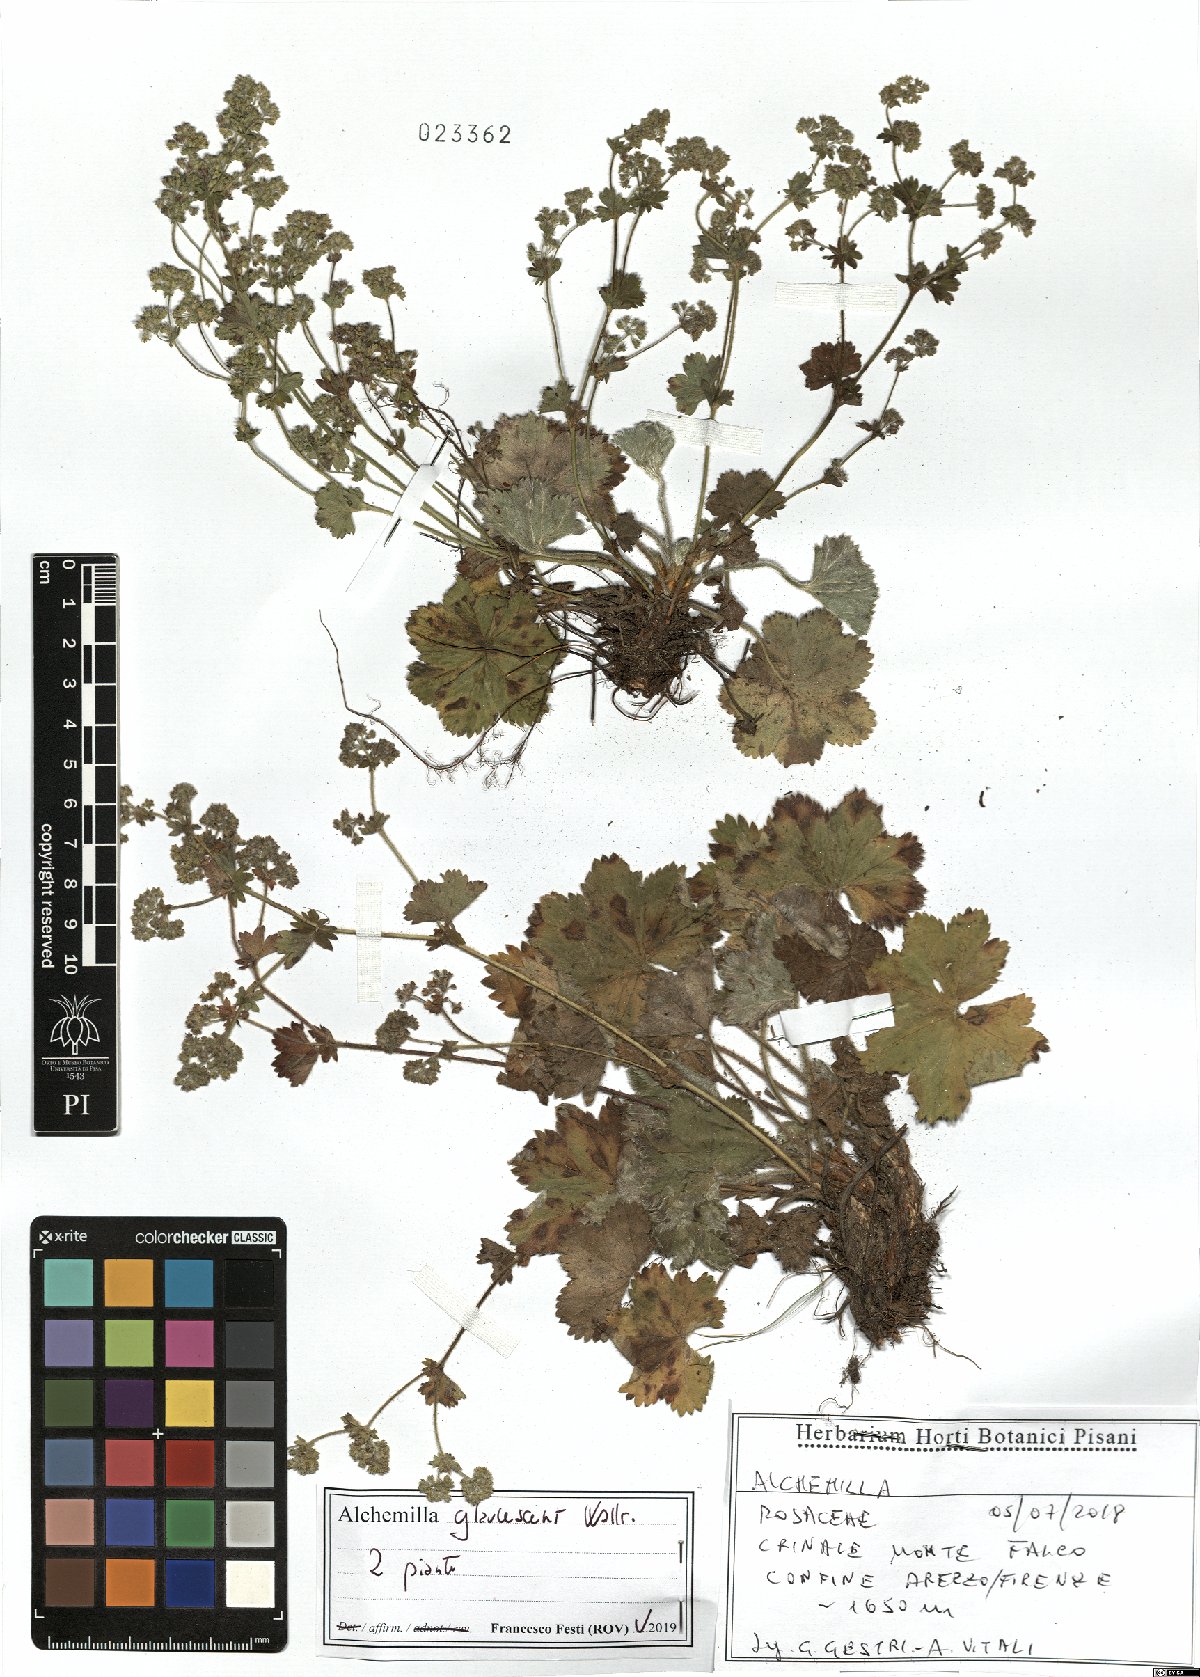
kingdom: Plantae
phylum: Tracheophyta
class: Magnoliopsida
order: Rosales
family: Rosaceae
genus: Alchemilla
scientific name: Alchemilla glaucescens
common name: Silky lady's mantle
